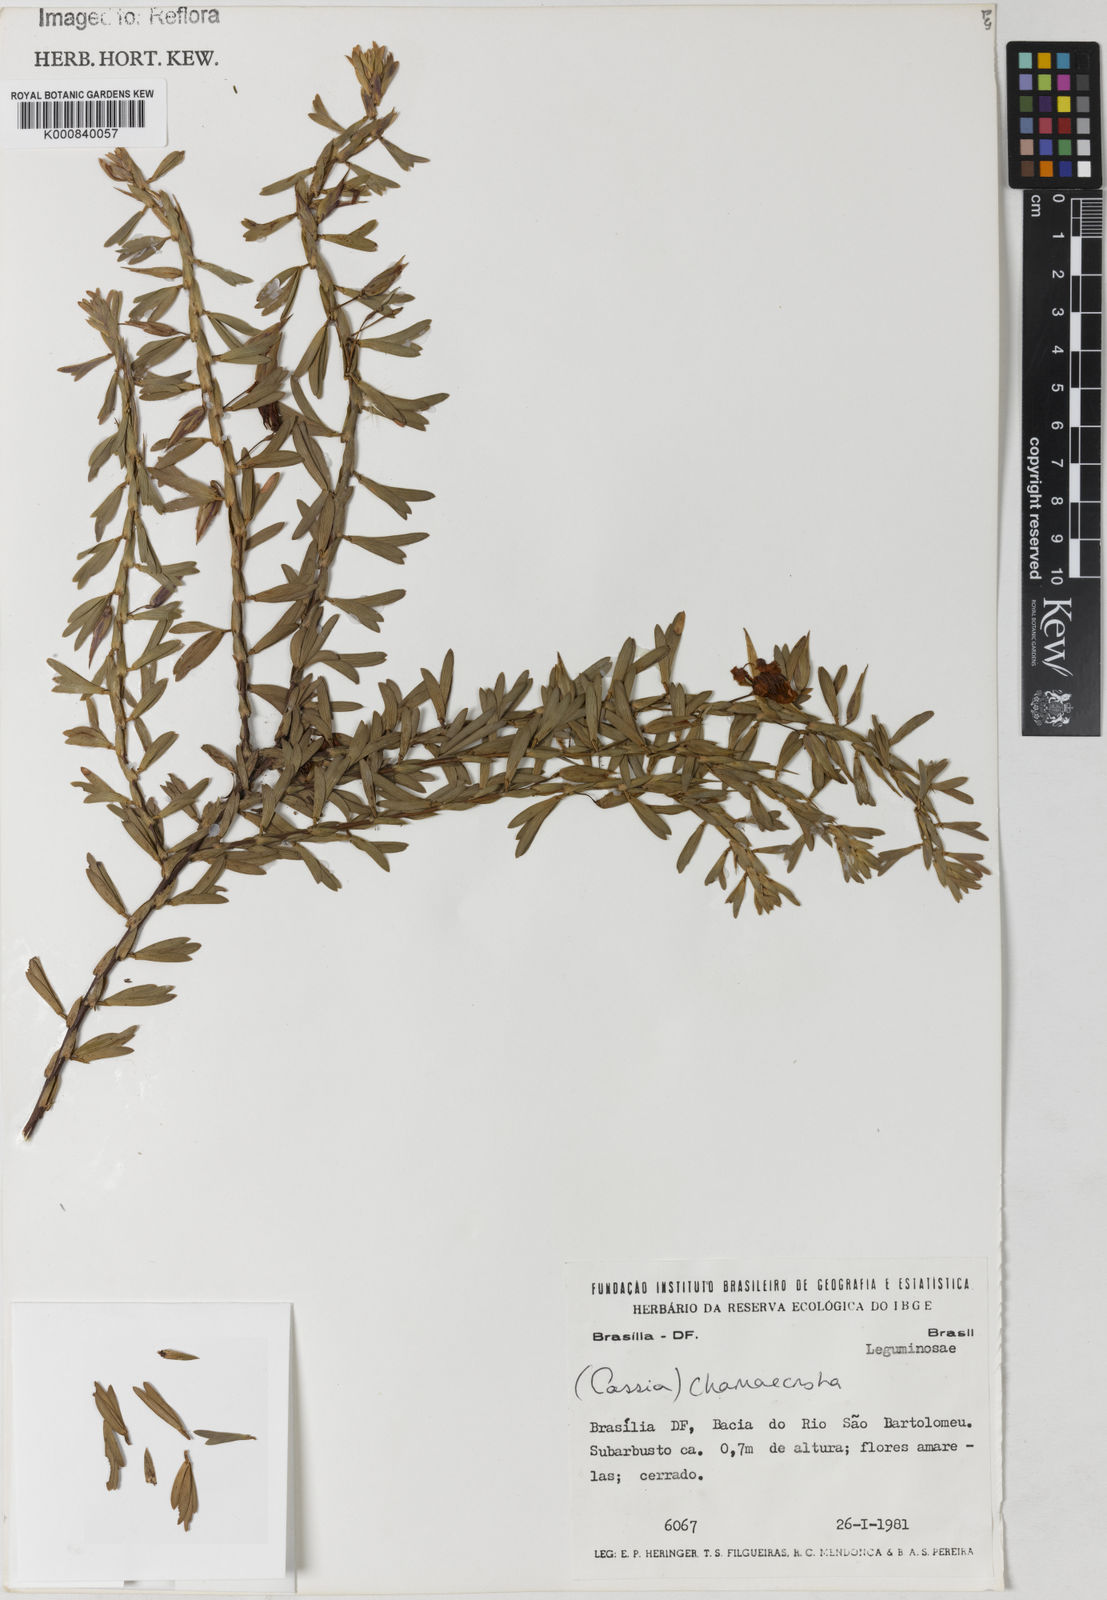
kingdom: Plantae
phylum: Tracheophyta
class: Magnoliopsida
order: Fabales
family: Fabaceae
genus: Chamaecrista
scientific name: Chamaecrista langsdorffii
